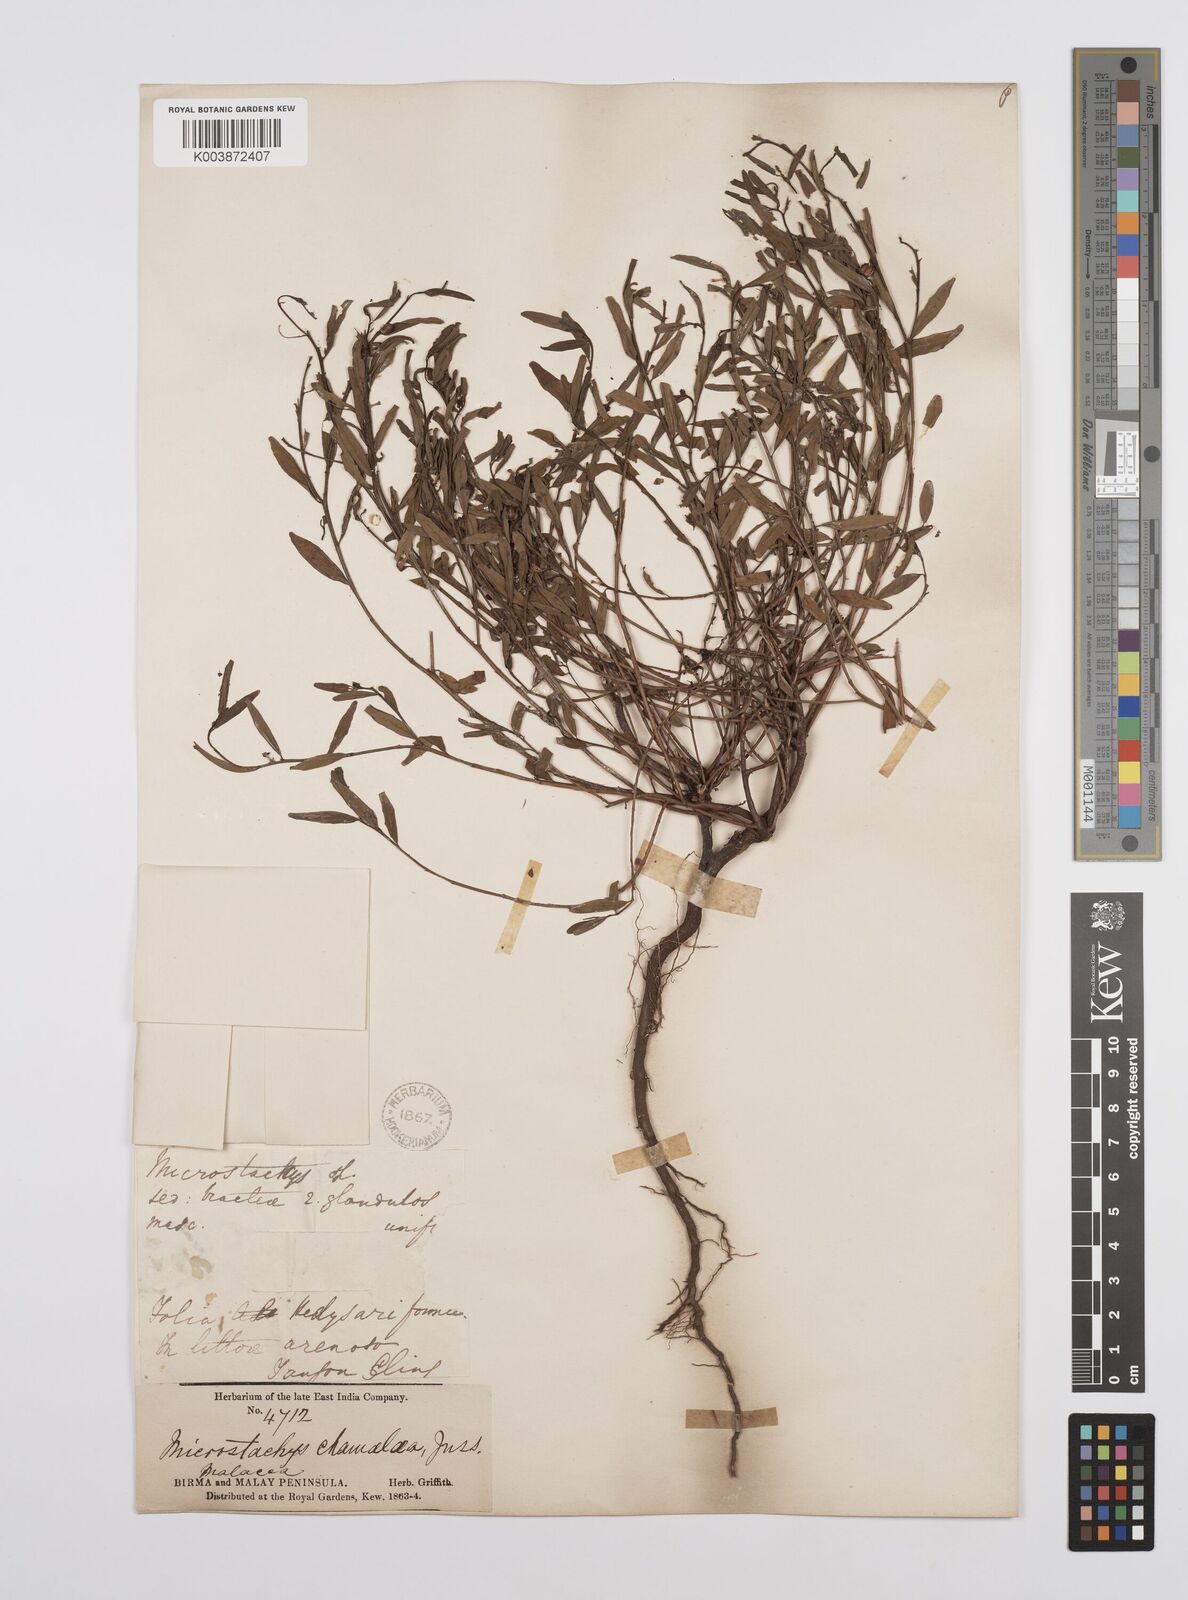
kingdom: Plantae
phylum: Tracheophyta
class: Magnoliopsida
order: Malpighiales
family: Euphorbiaceae
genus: Microstachys
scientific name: Microstachys chamaelea
